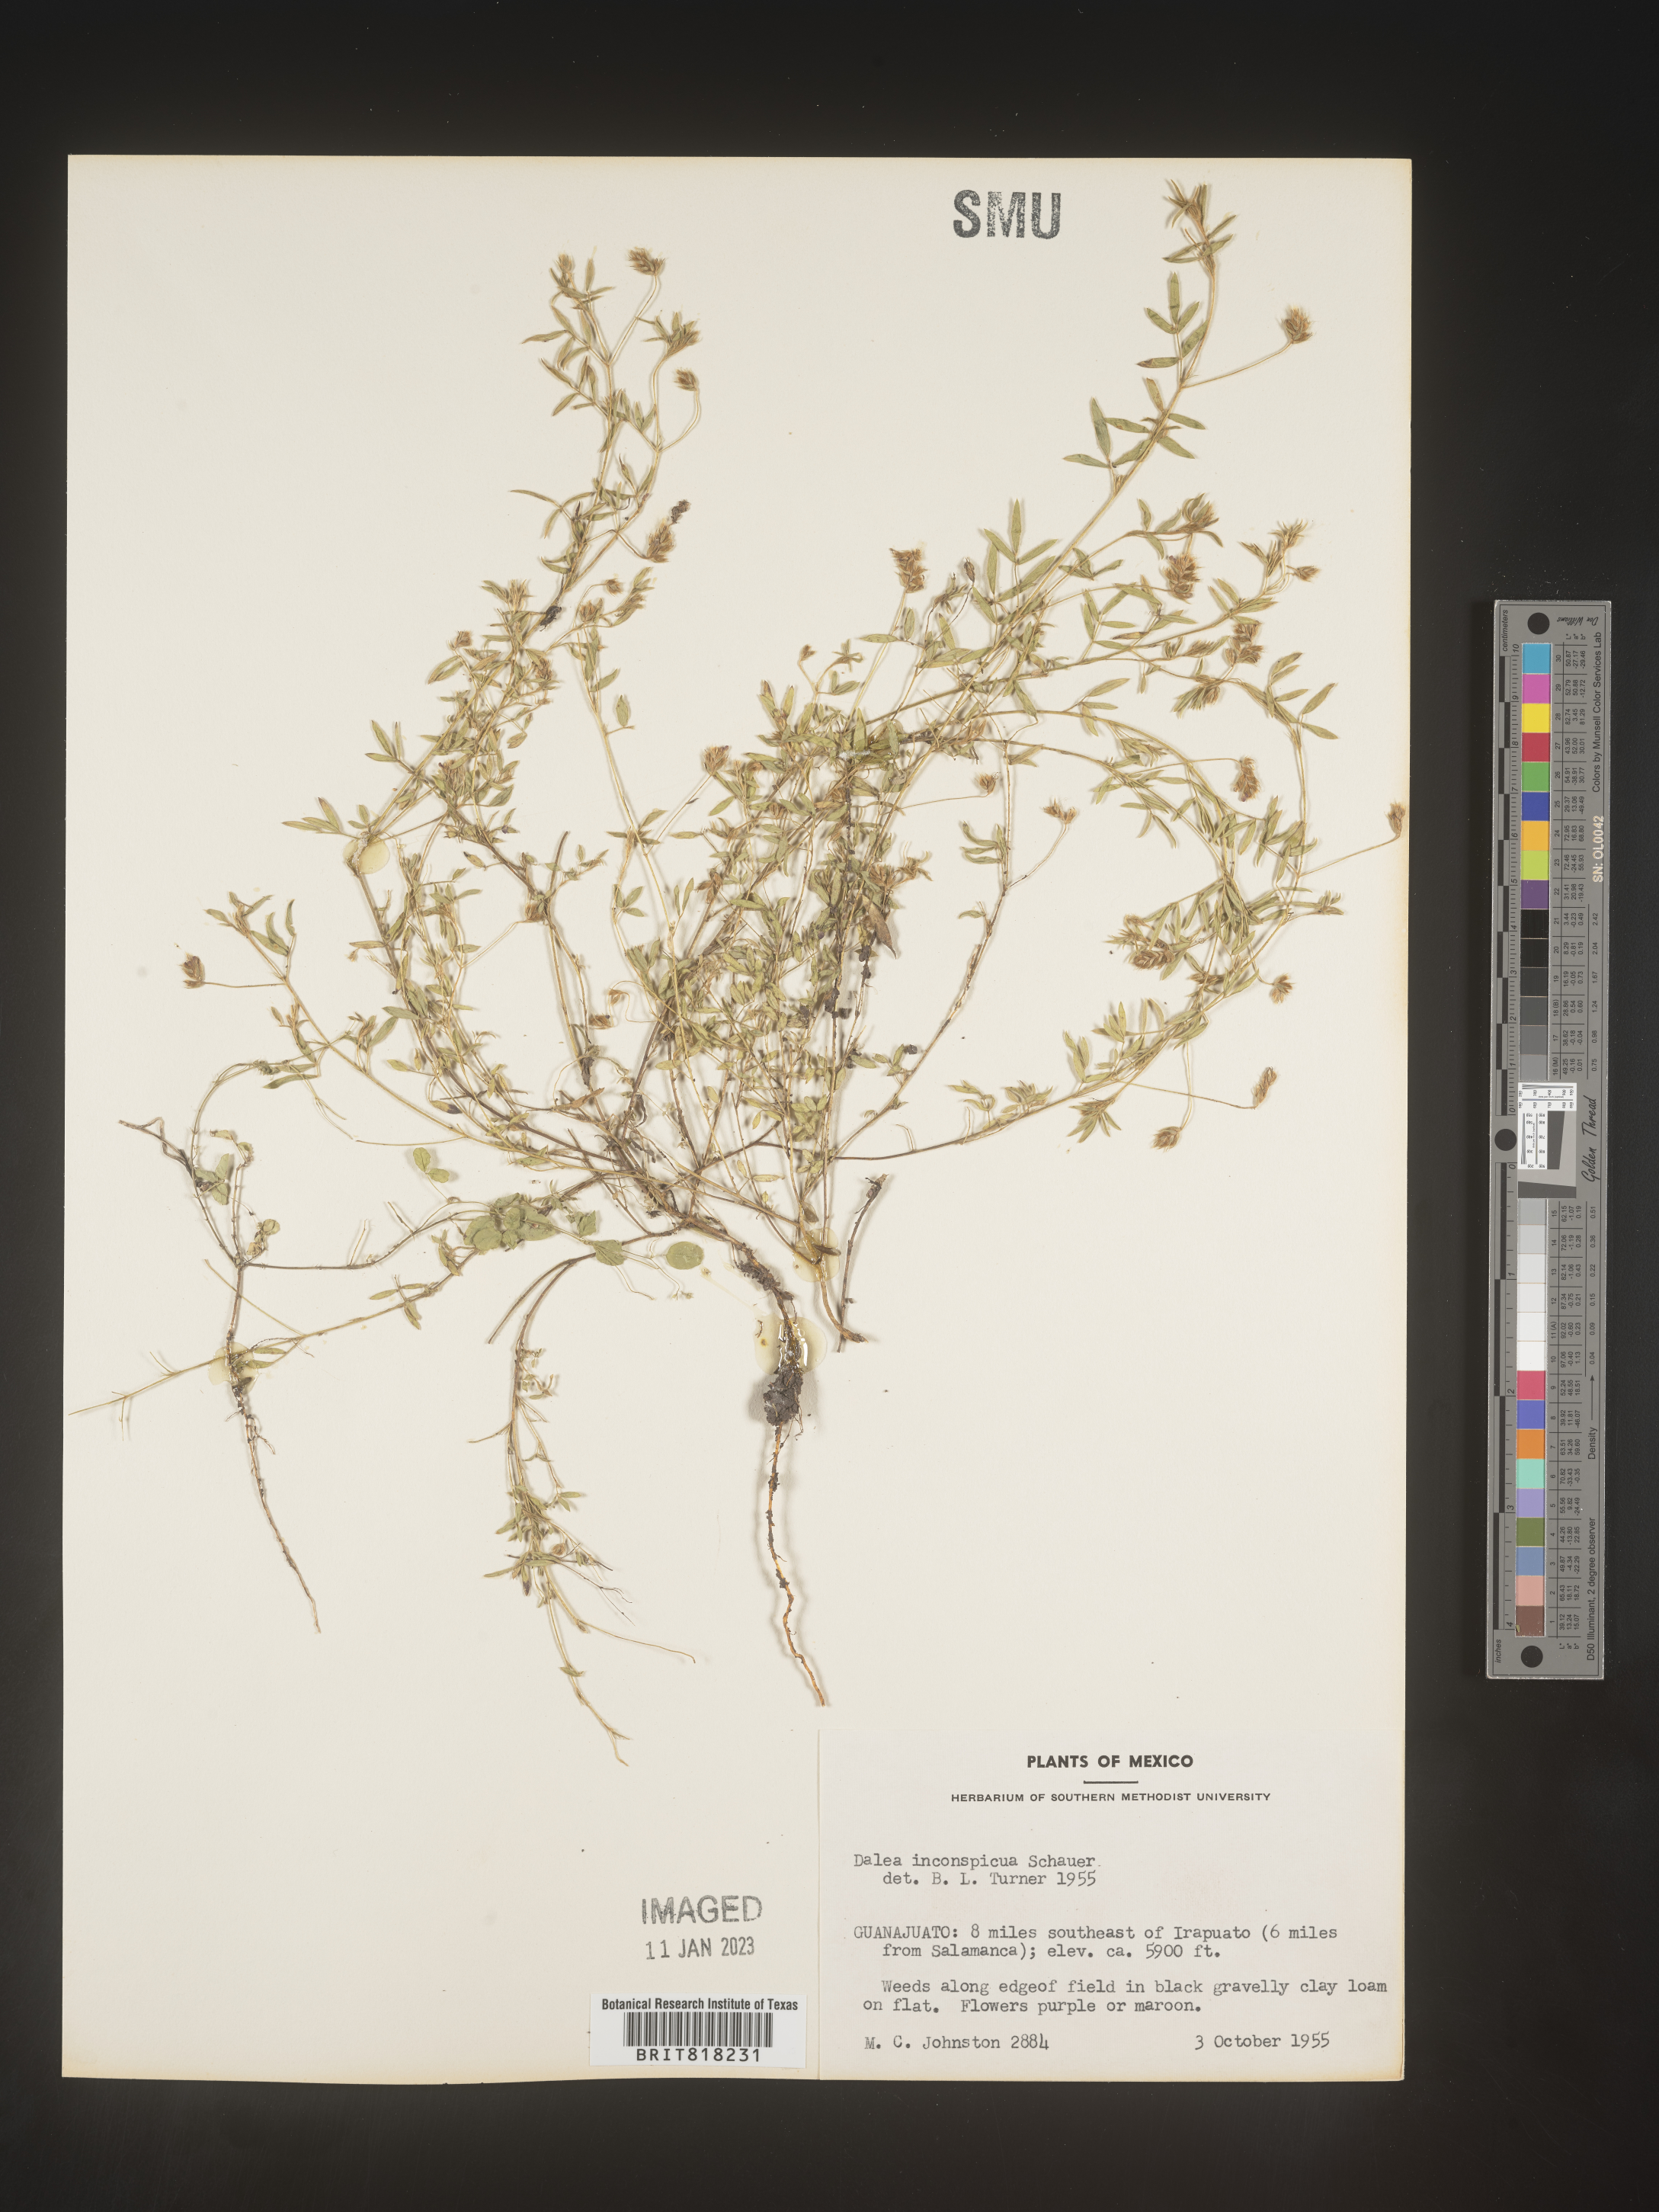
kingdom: Plantae
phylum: Tracheophyta
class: Magnoliopsida
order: Fabales
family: Fabaceae
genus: Dalea
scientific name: Dalea
